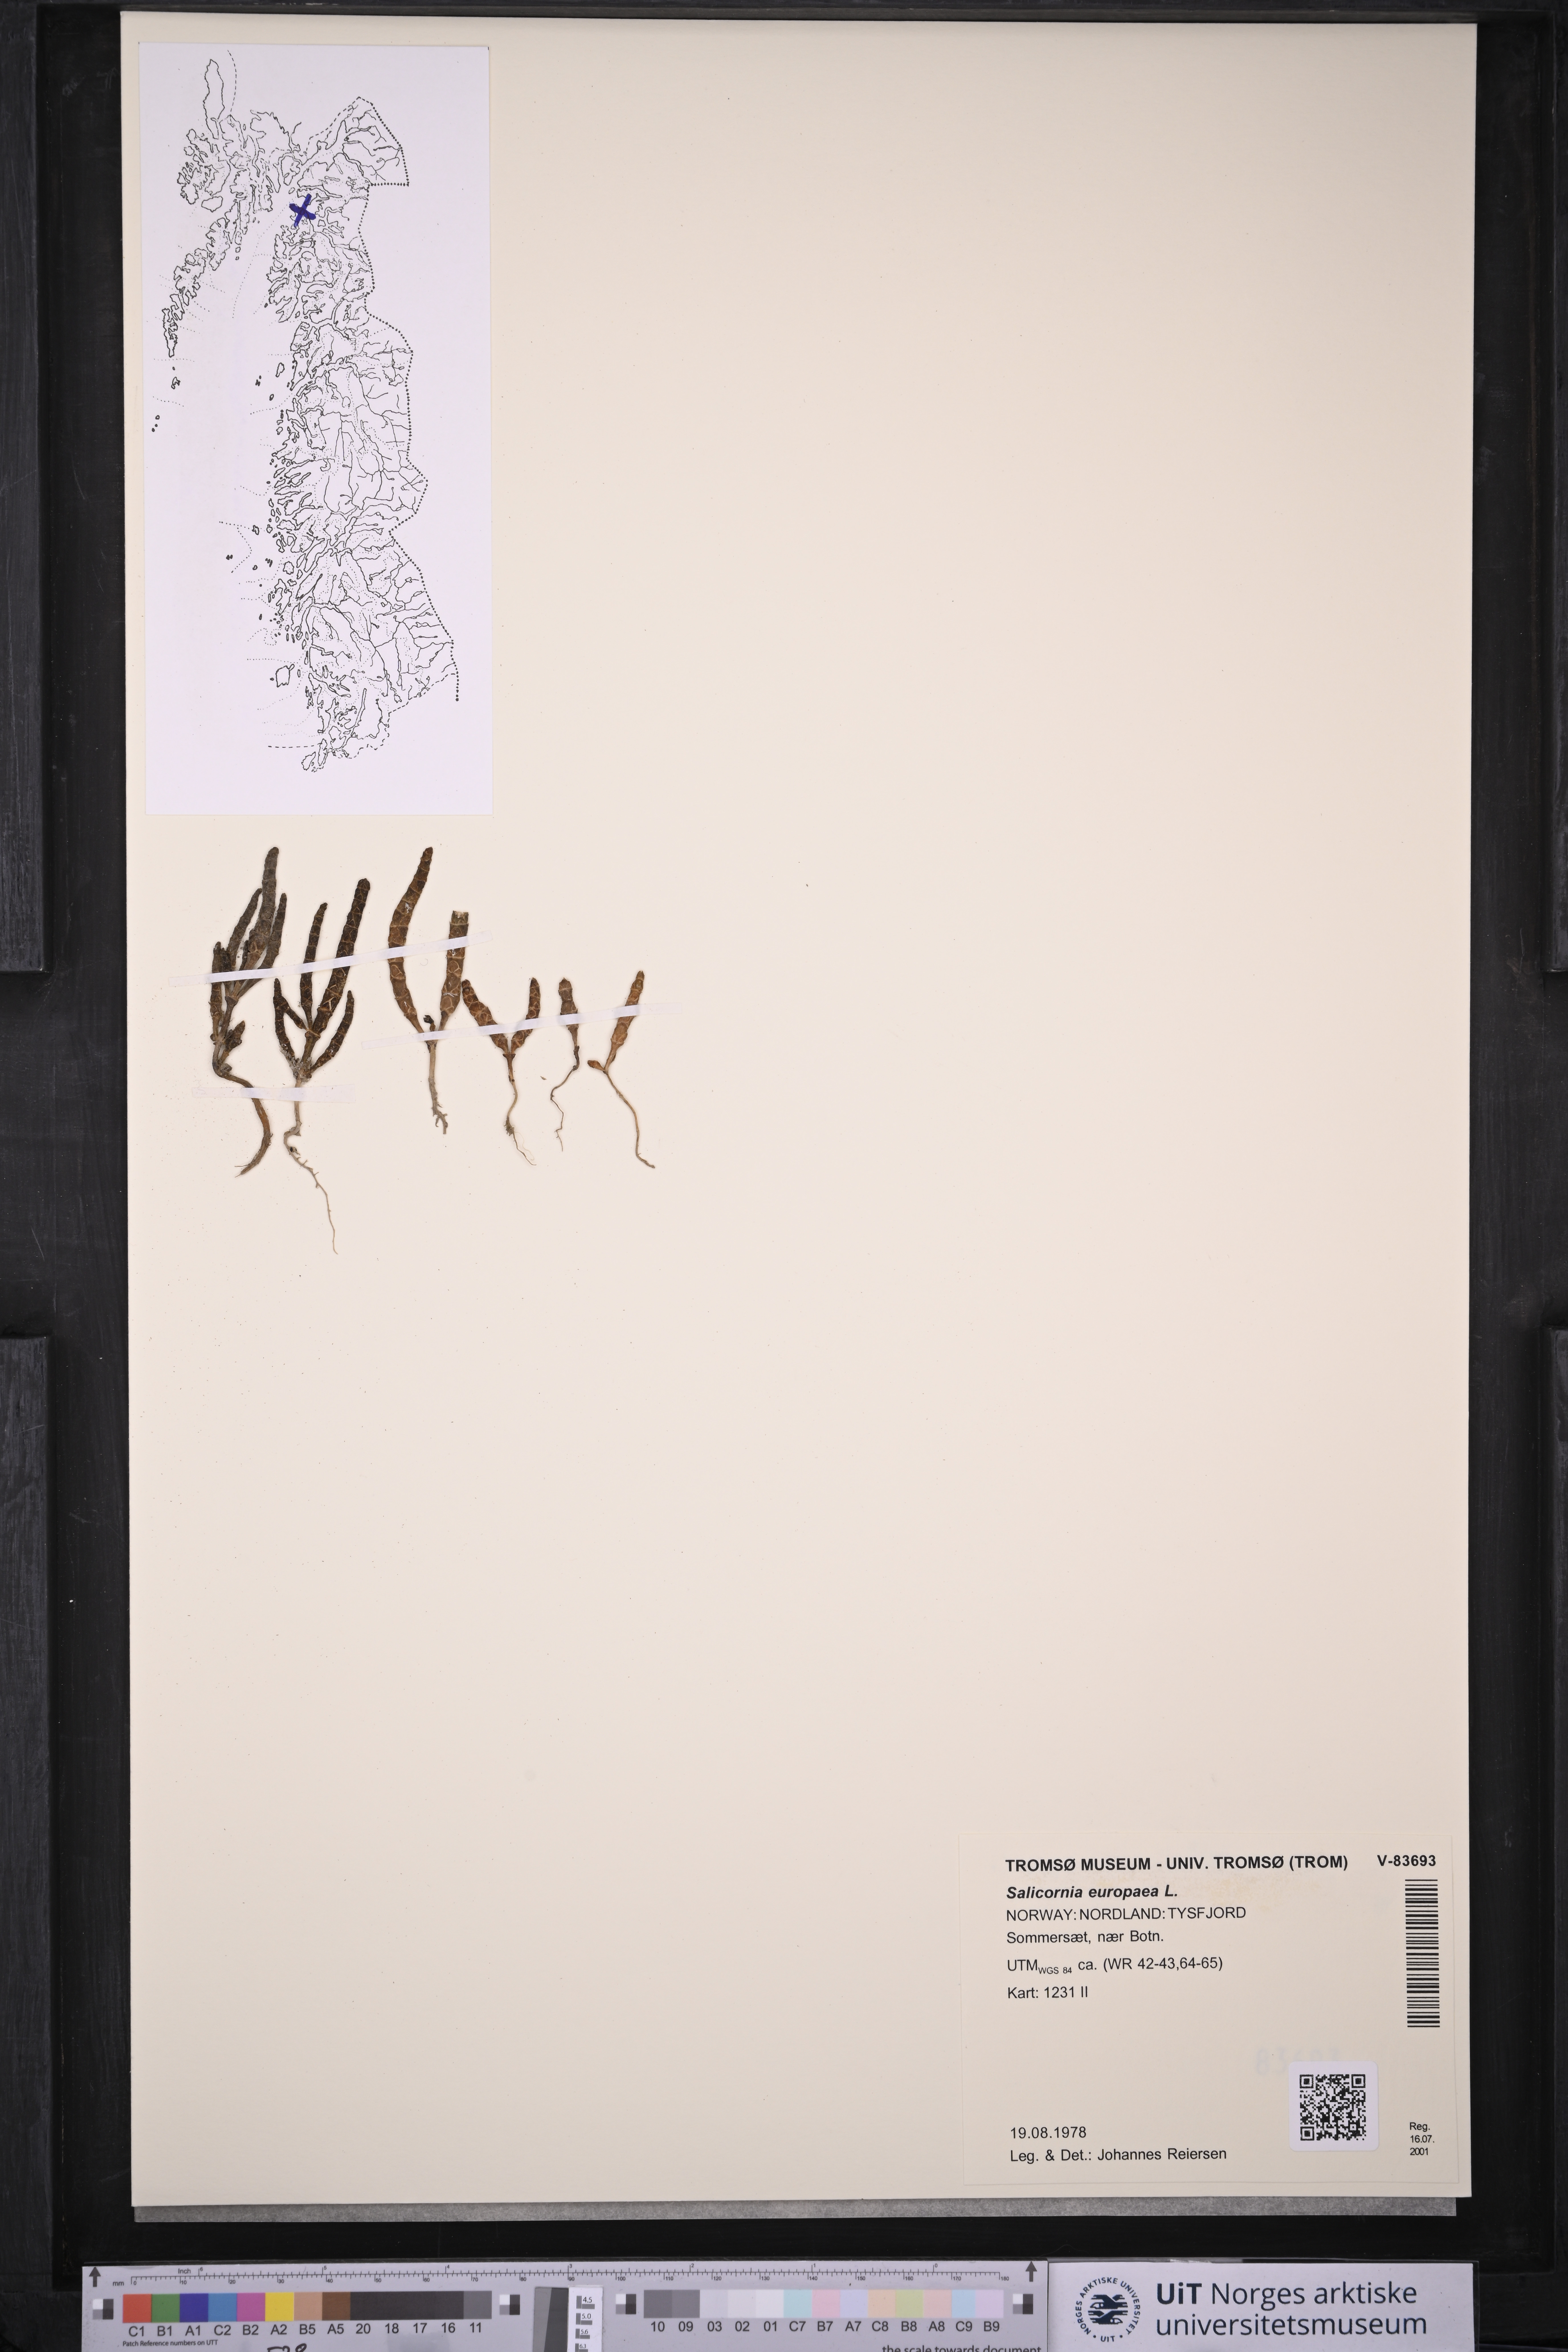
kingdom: Plantae
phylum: Tracheophyta
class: Magnoliopsida
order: Caryophyllales
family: Amaranthaceae
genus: Salicornia
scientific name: Salicornia europaea
